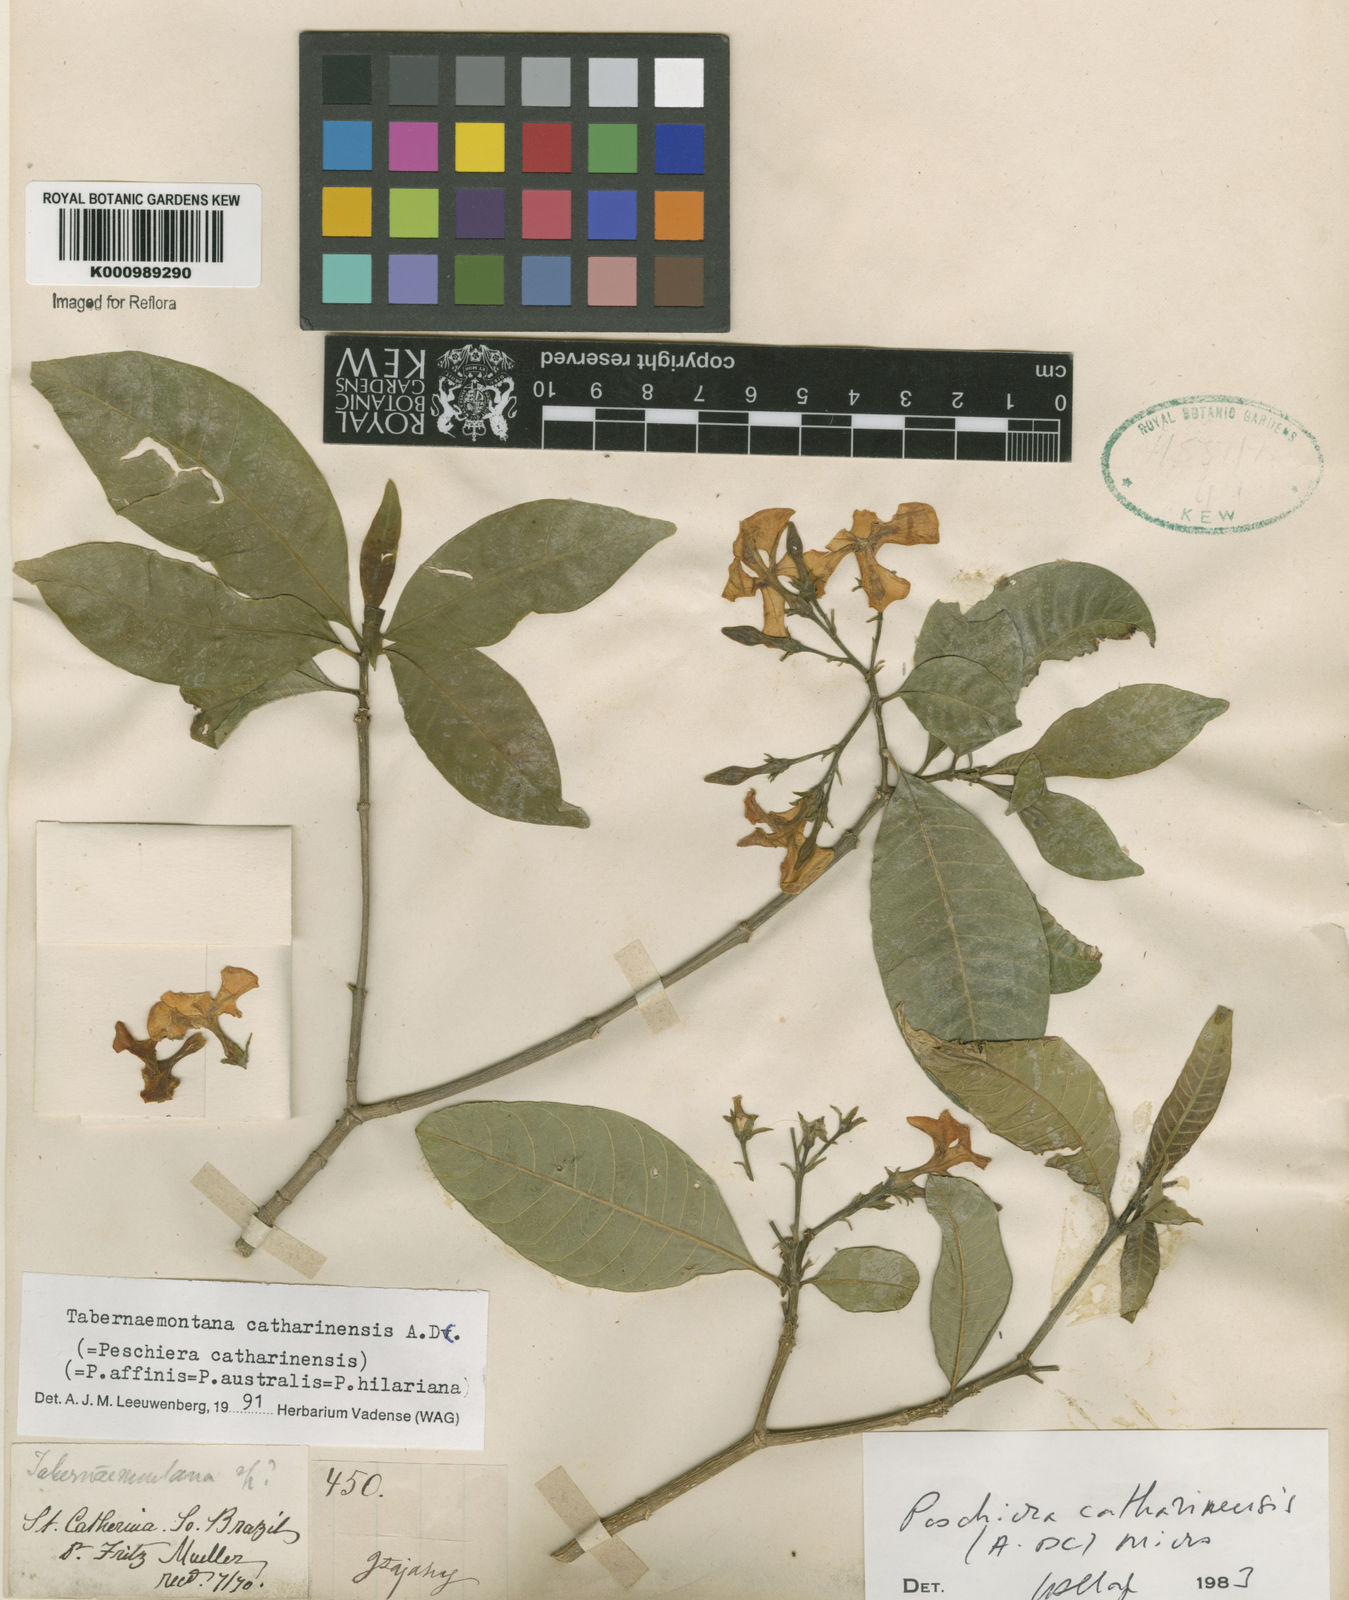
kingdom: Plantae
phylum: Tracheophyta
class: Magnoliopsida
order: Gentianales
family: Apocynaceae
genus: Tabernaemontana
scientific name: Tabernaemontana catharinensis
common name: Pinwheel-flower
